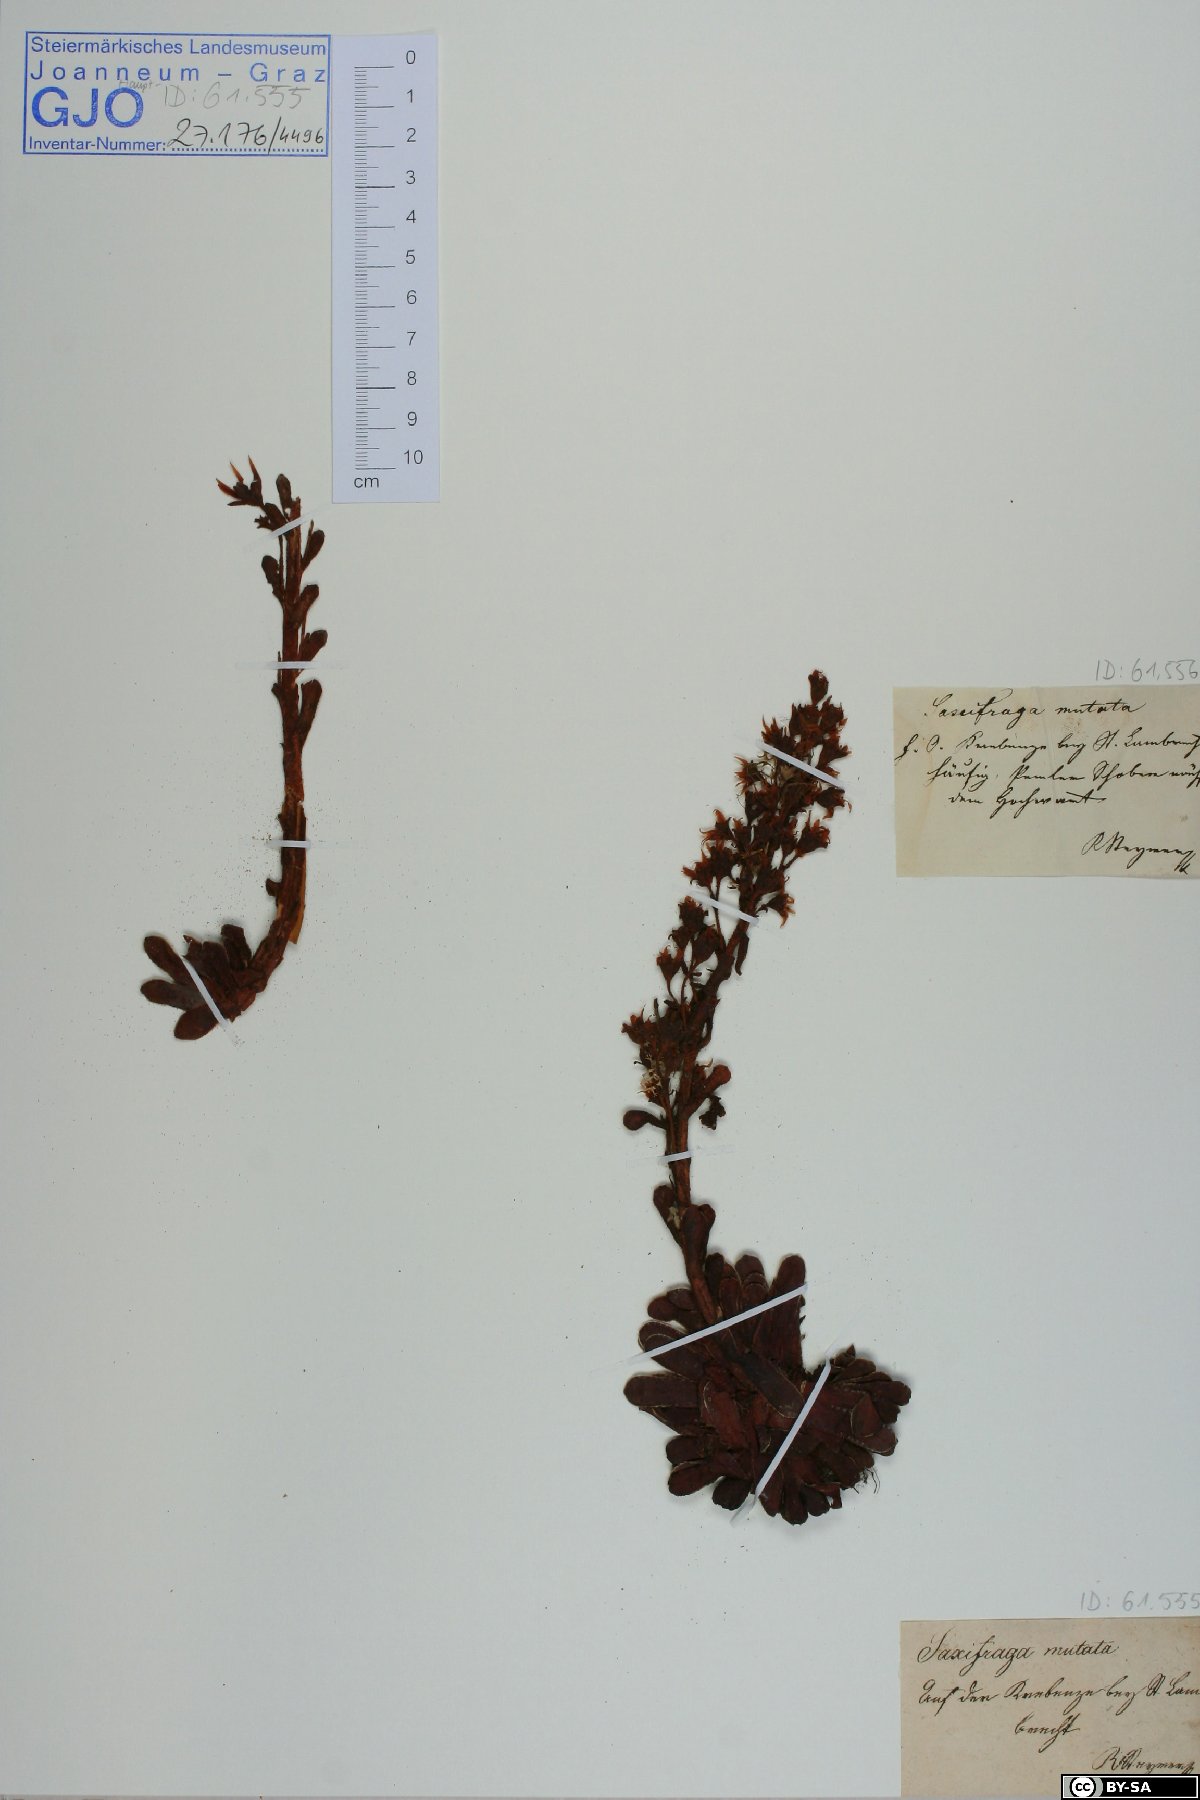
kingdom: Plantae
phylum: Tracheophyta
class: Magnoliopsida
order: Saxifragales
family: Saxifragaceae
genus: Saxifraga
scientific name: Saxifraga mutata
